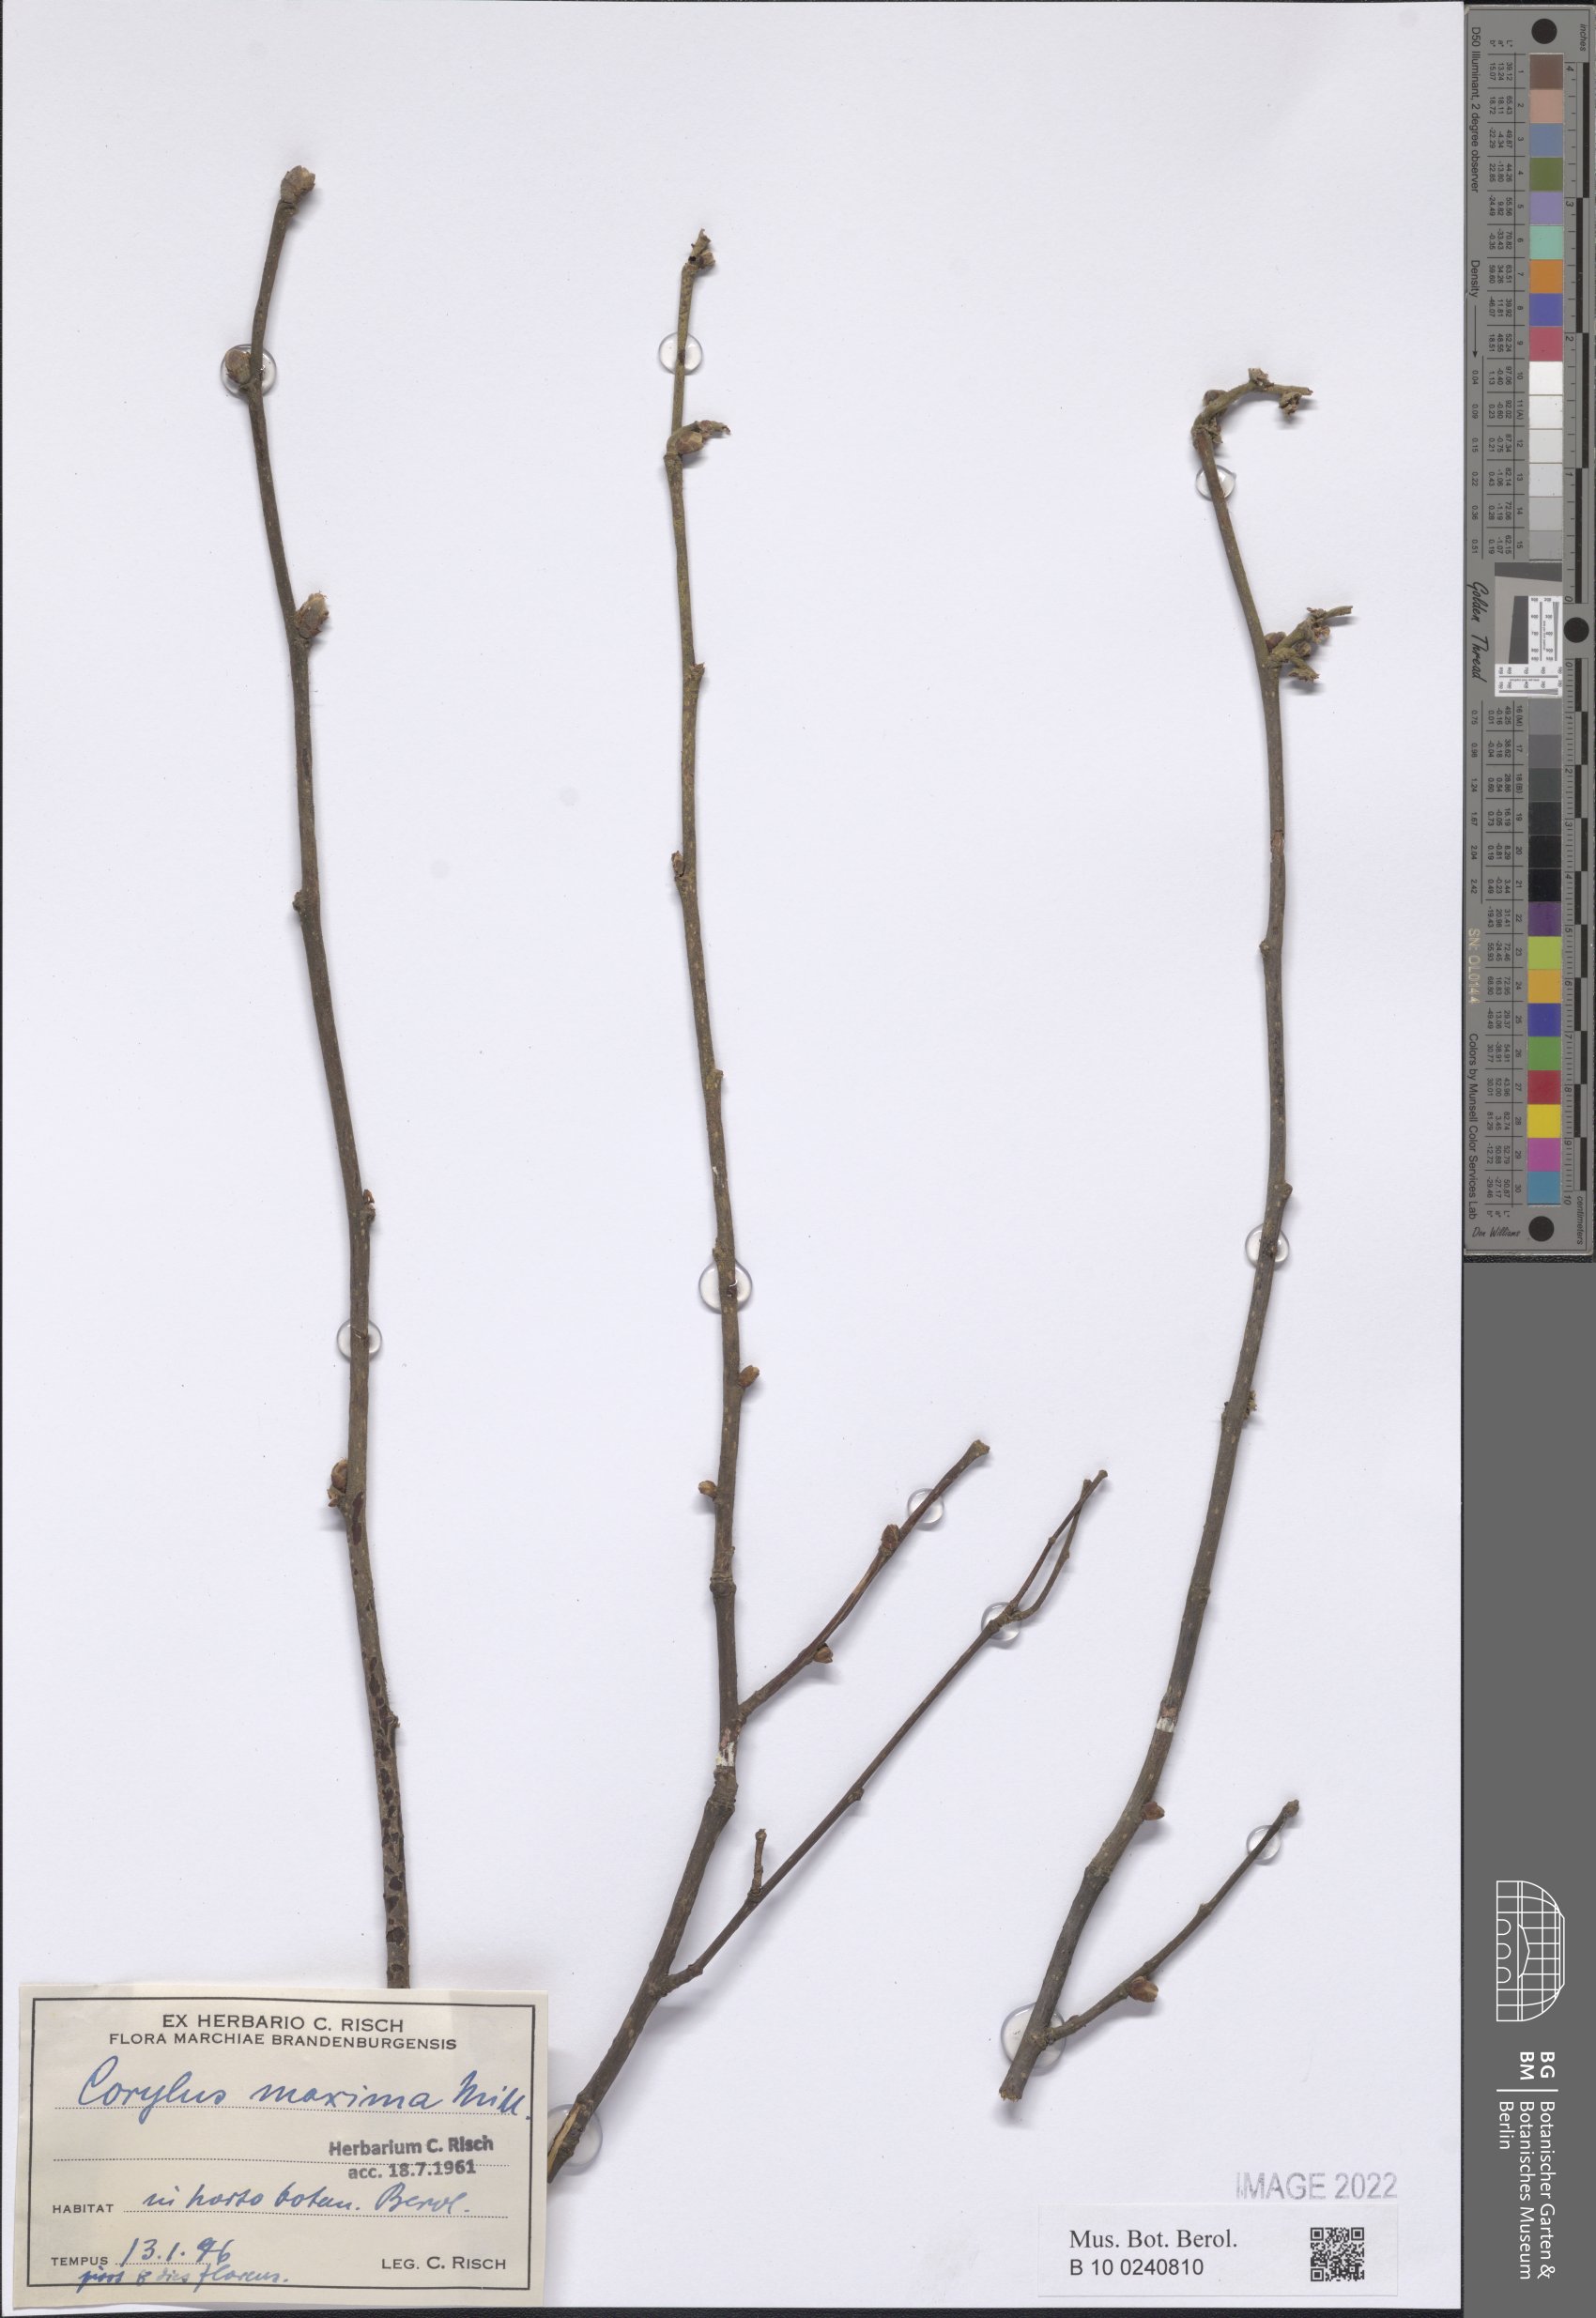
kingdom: Plantae
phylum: Tracheophyta
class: Magnoliopsida
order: Lamiales
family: Scrophulariaceae
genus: Buddleja
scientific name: Buddleja thyrsoides
